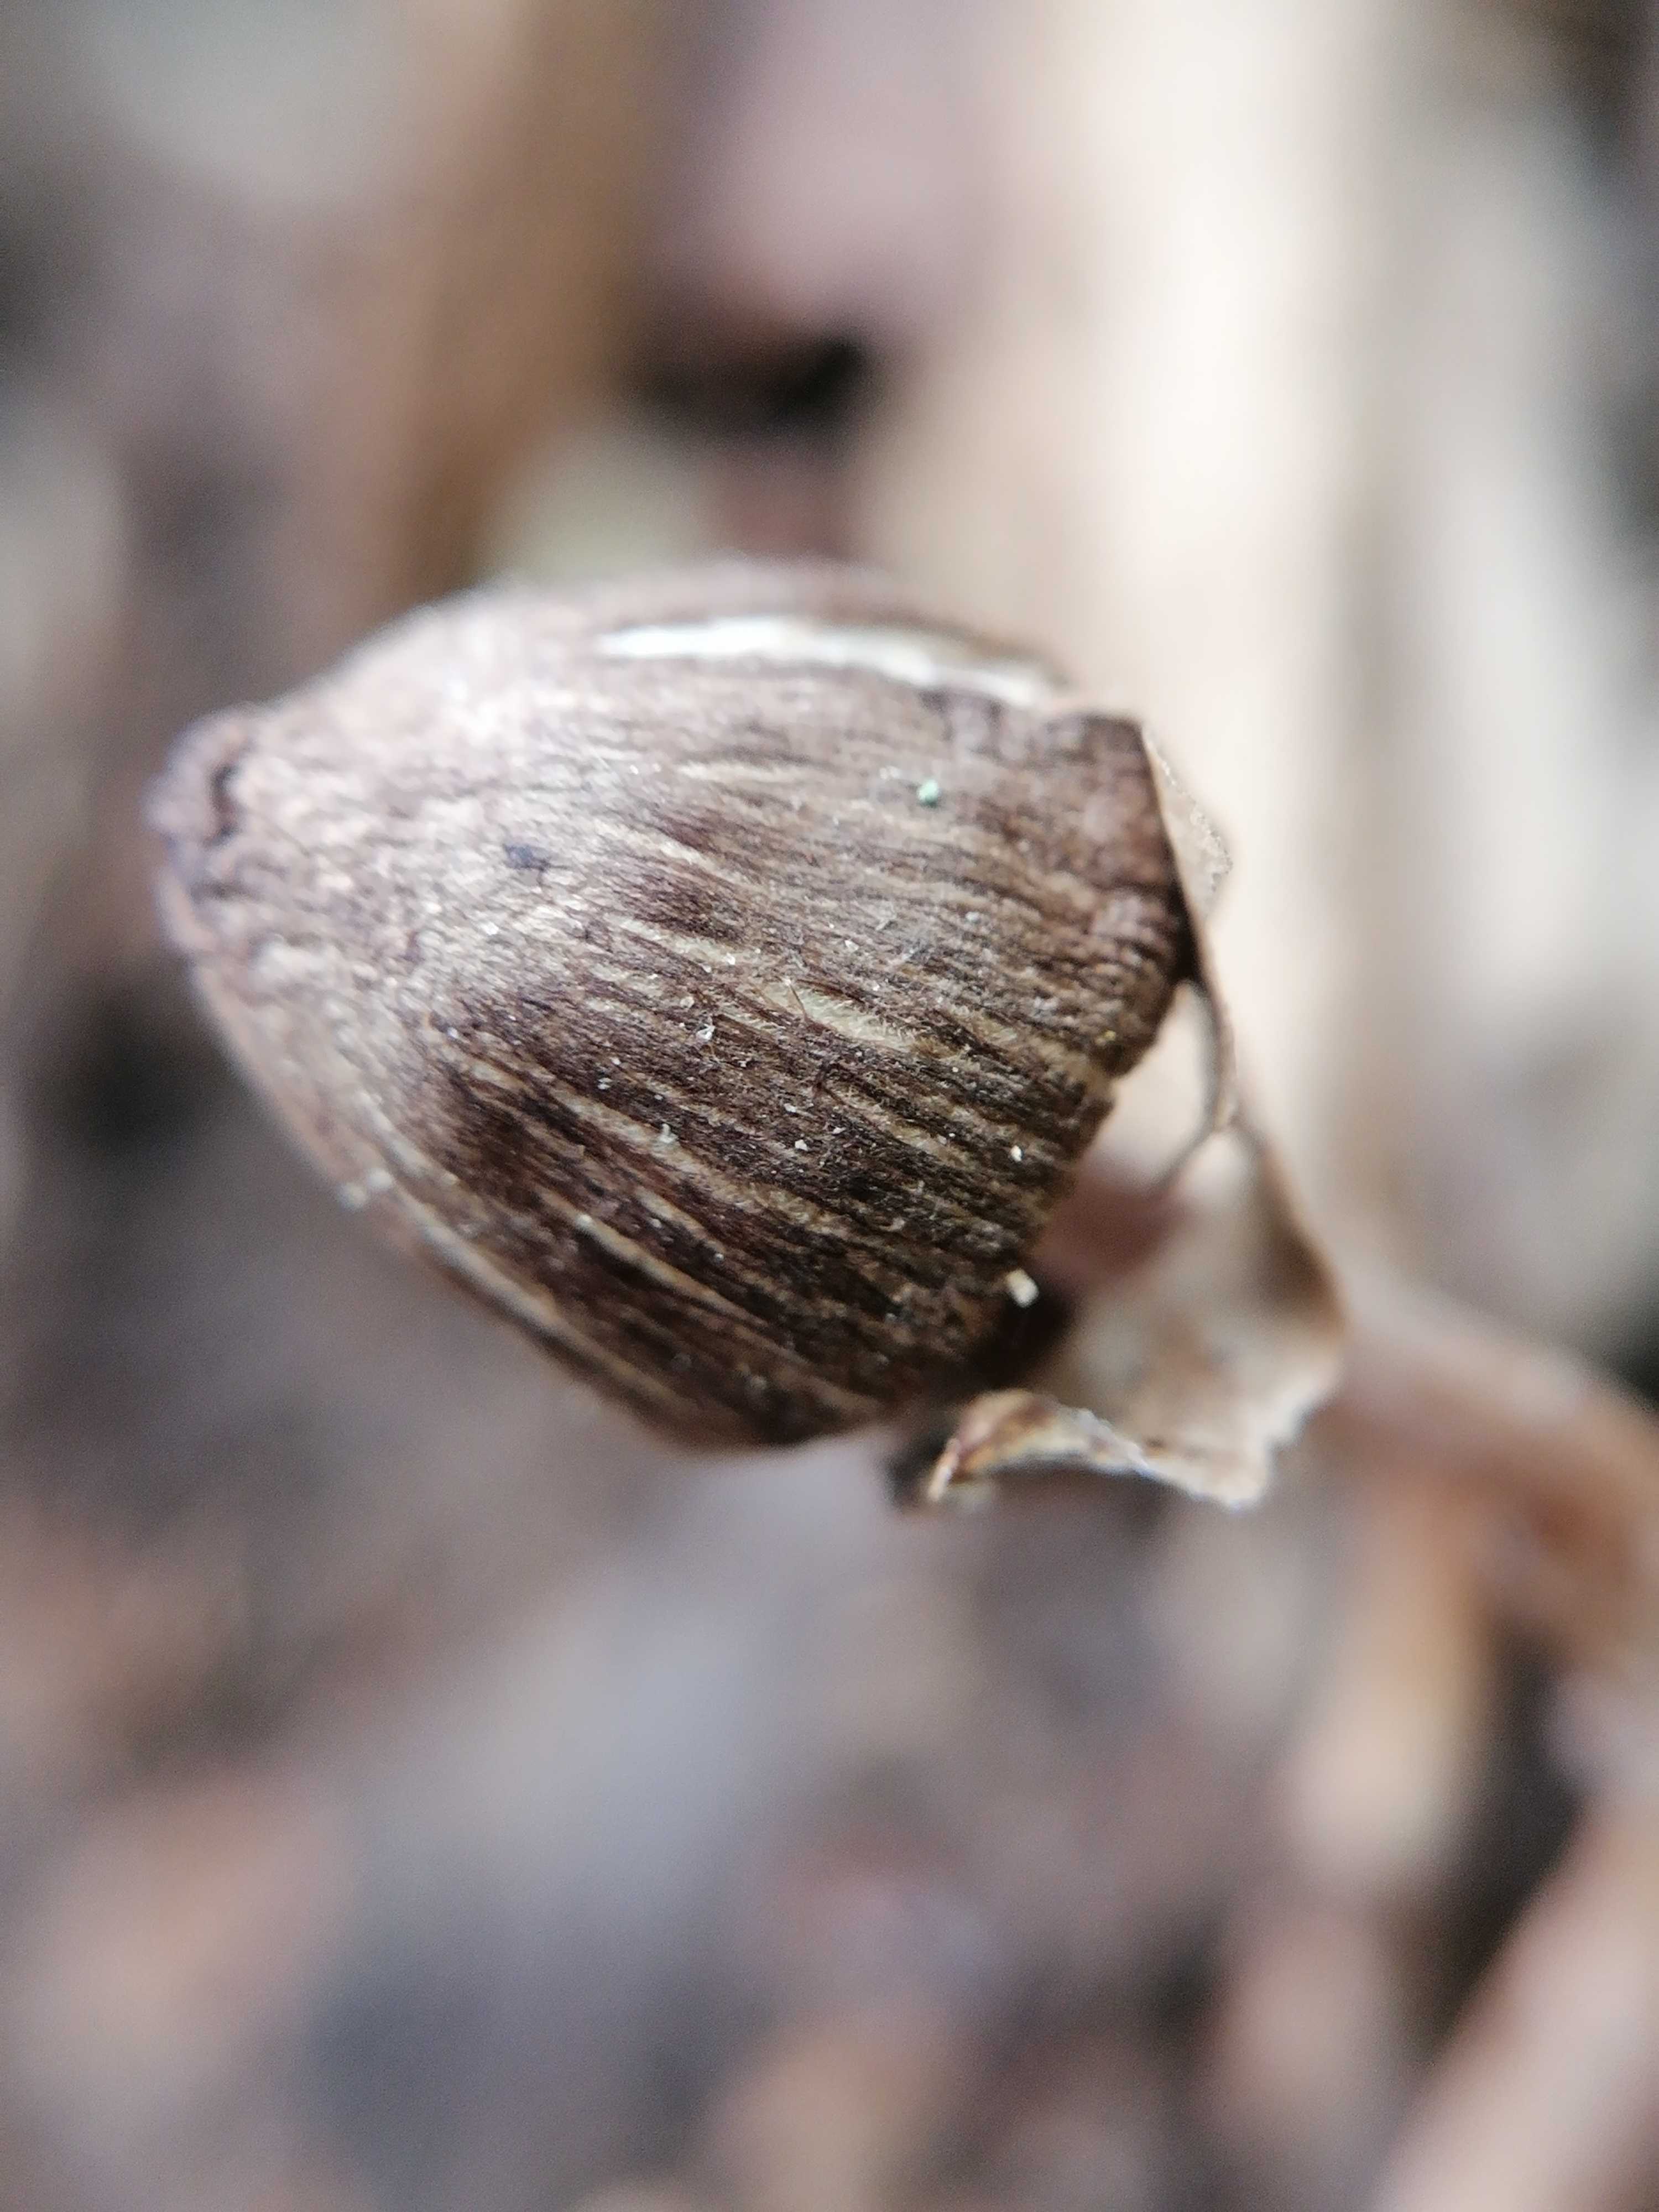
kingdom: Fungi
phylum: Basidiomycota
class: Agaricomycetes
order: Agaricales
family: Inocybaceae
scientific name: Inocybaceae
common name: trævlhatfamilien
